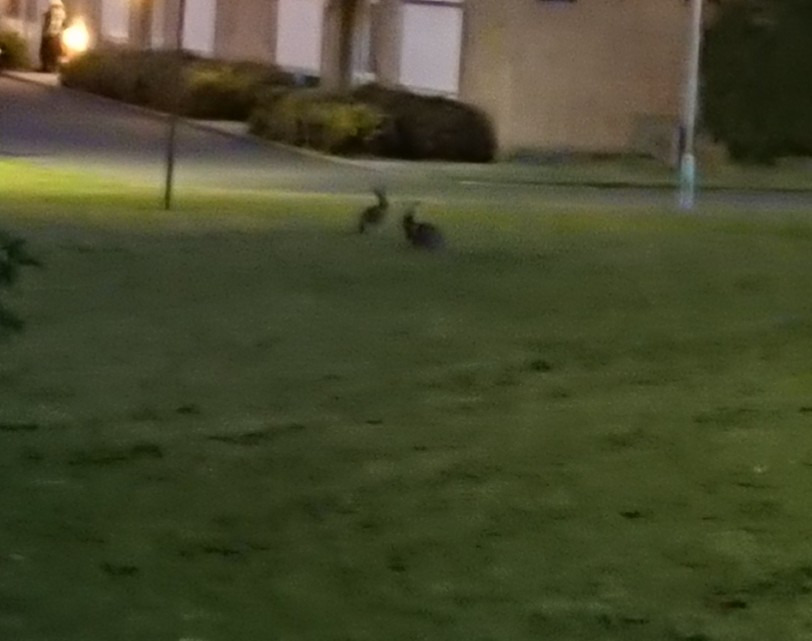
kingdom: Animalia
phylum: Chordata
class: Mammalia
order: Lagomorpha
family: Leporidae
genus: Lepus
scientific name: Lepus europaeus
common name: Hare
